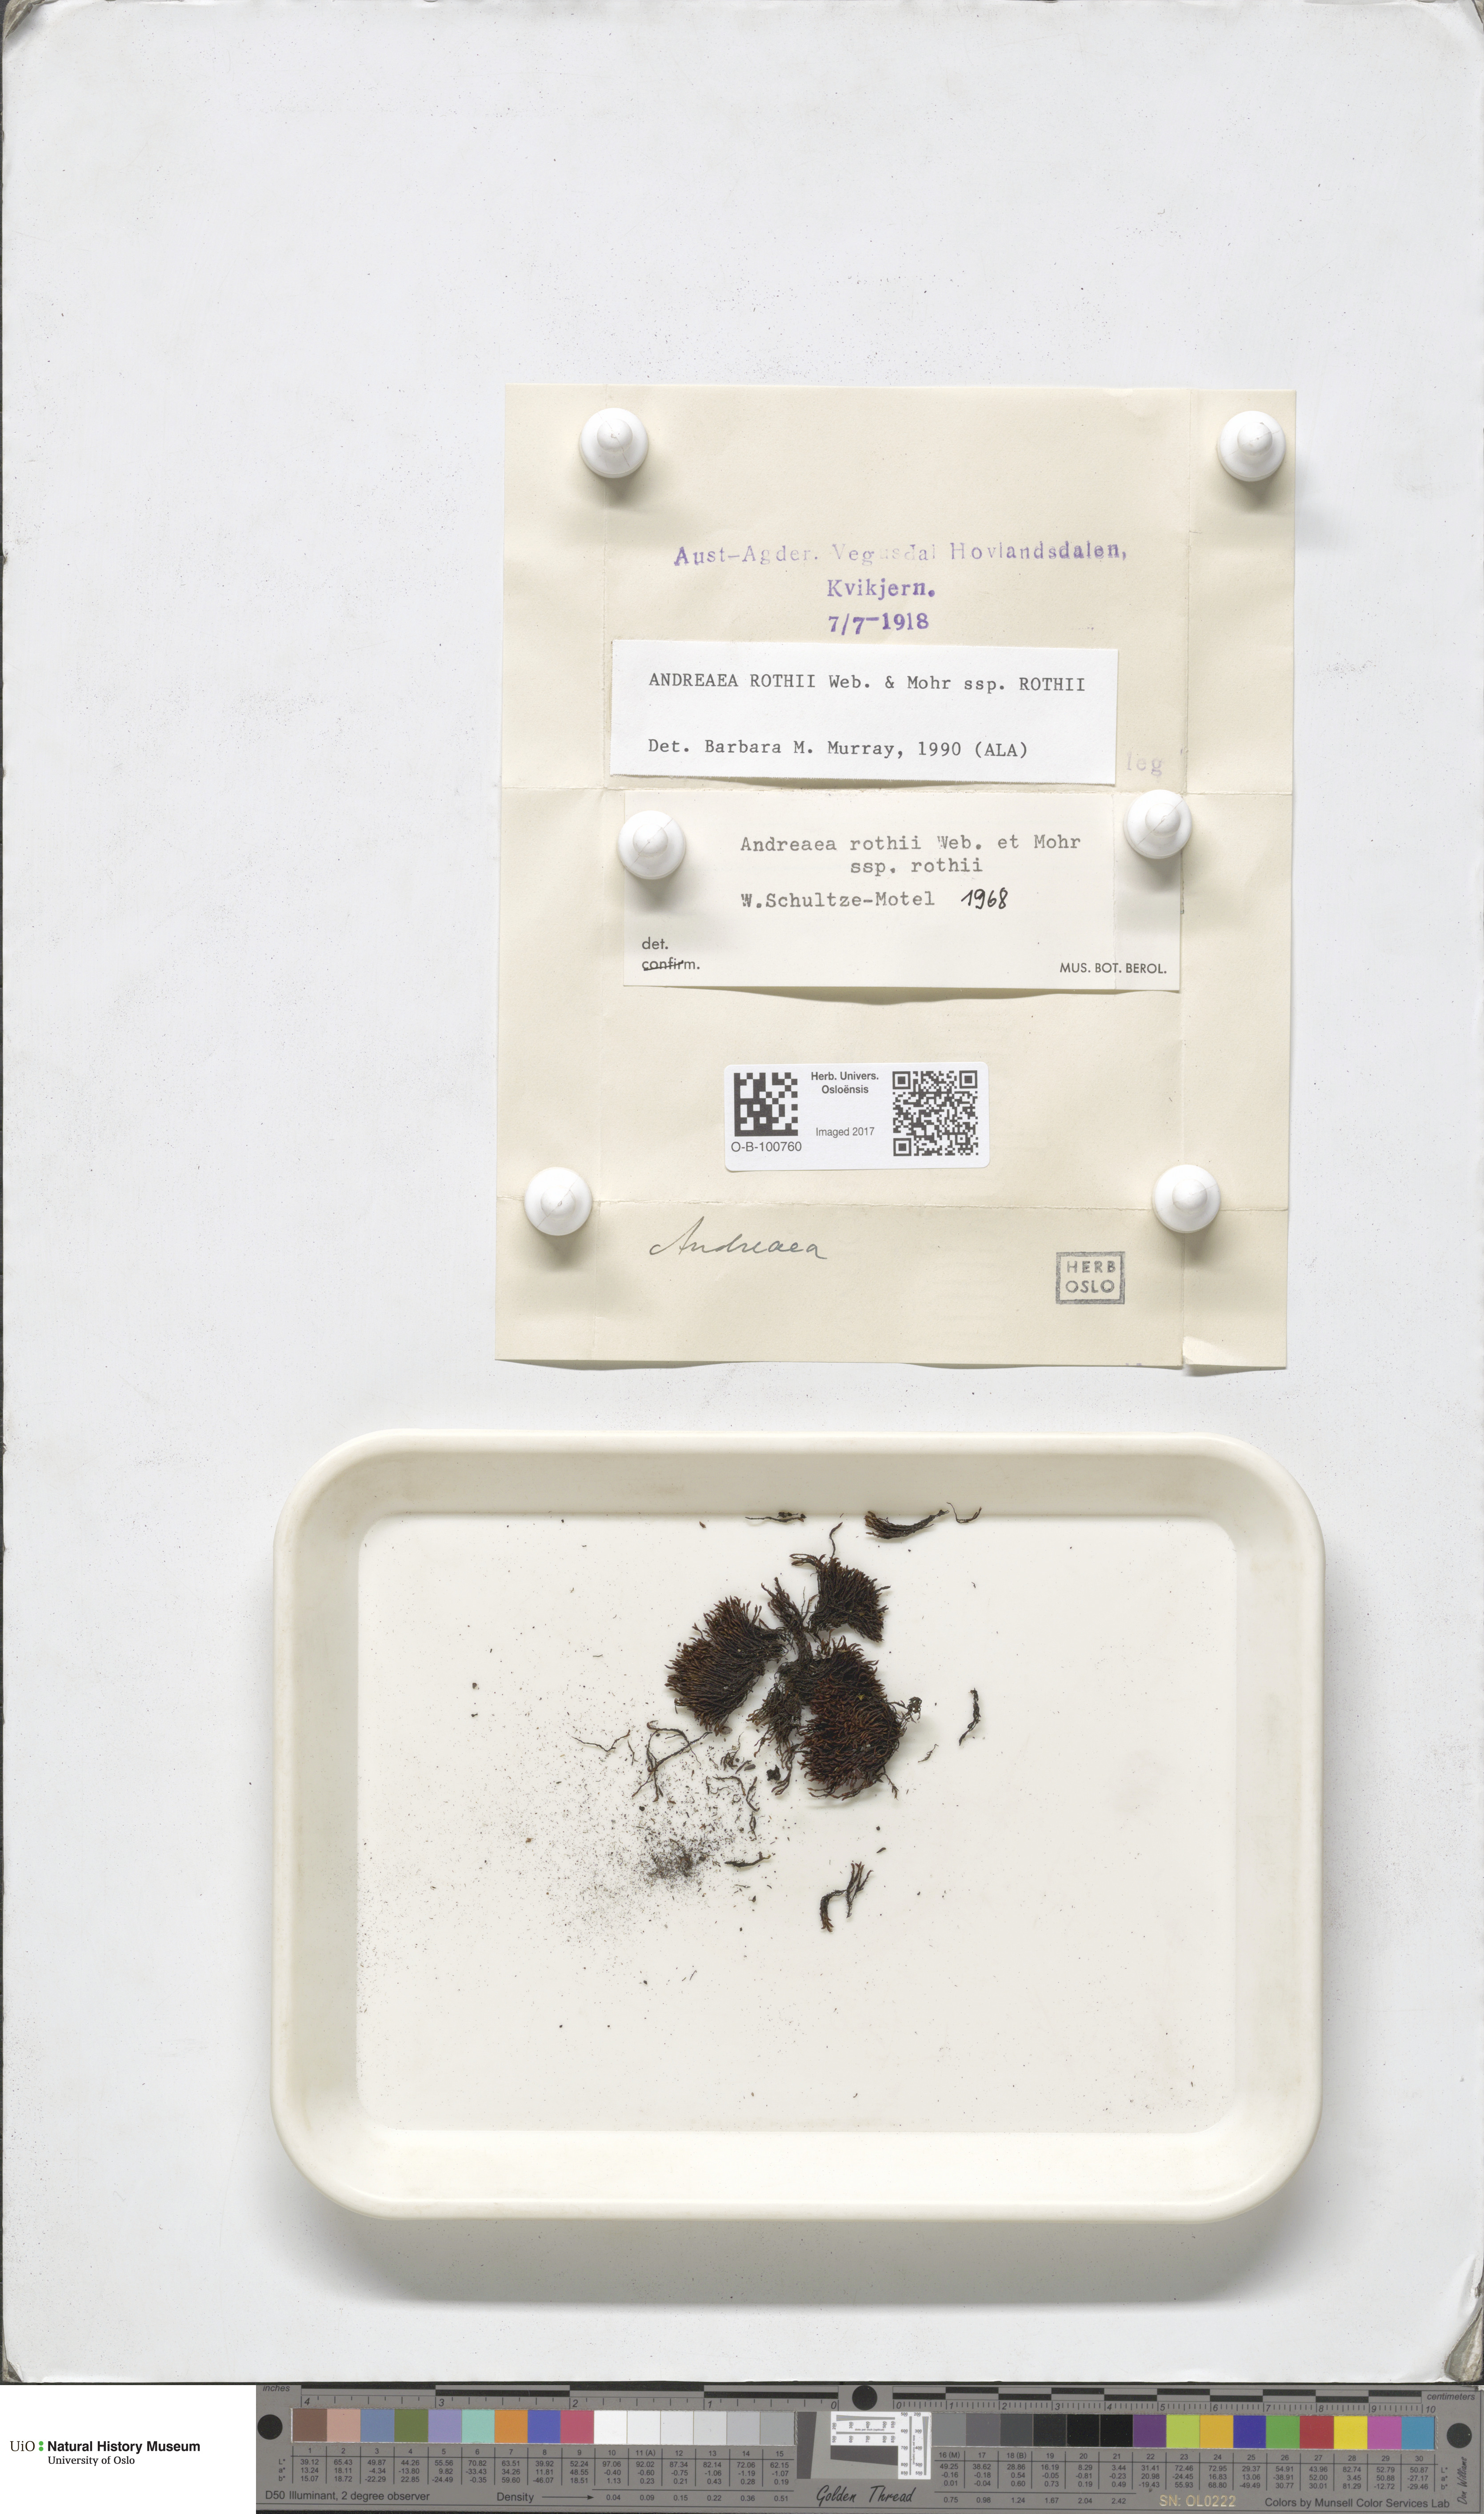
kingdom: Plantae
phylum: Bryophyta
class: Andreaeopsida
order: Andreaeales
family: Andreaeaceae
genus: Andreaea
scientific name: Andreaea rothii
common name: Dusky rock moss
